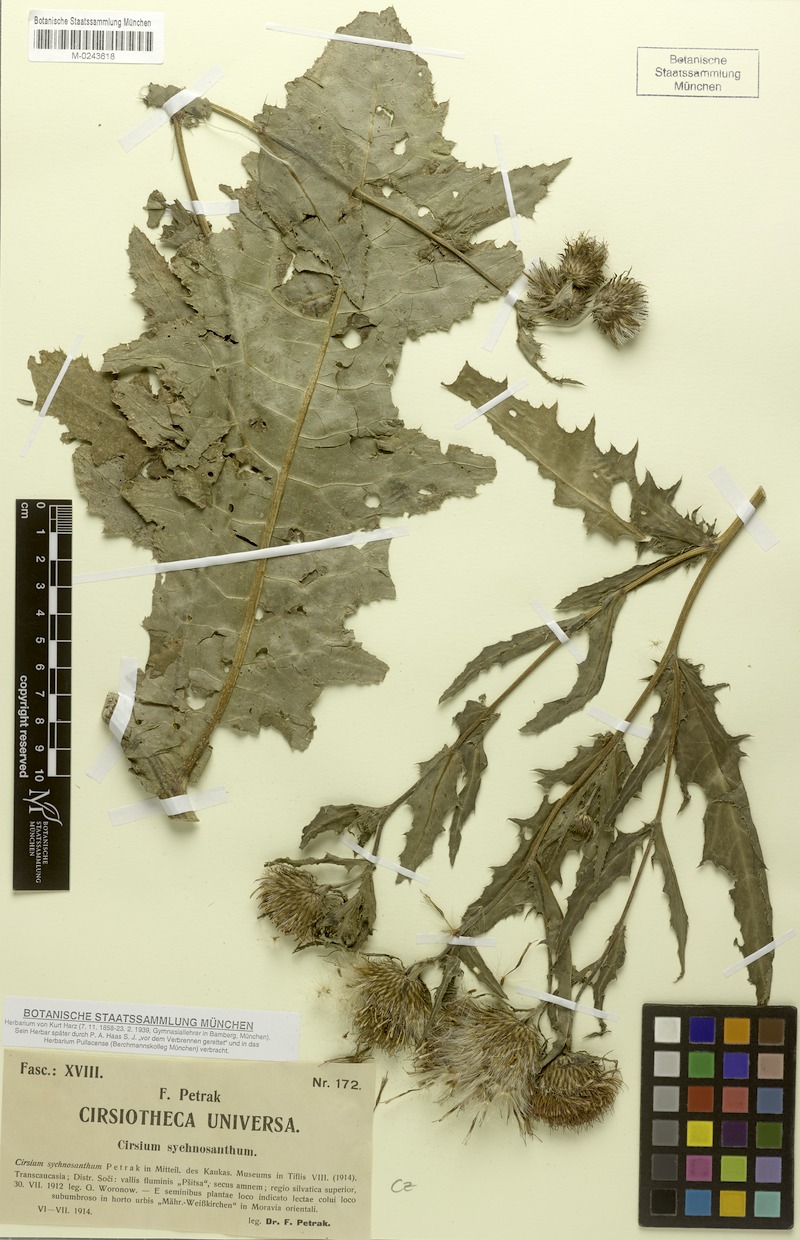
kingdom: Plantae
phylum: Tracheophyta
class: Magnoliopsida
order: Asterales
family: Asteraceae
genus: Cirsium
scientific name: Cirsium sychnosanthum
